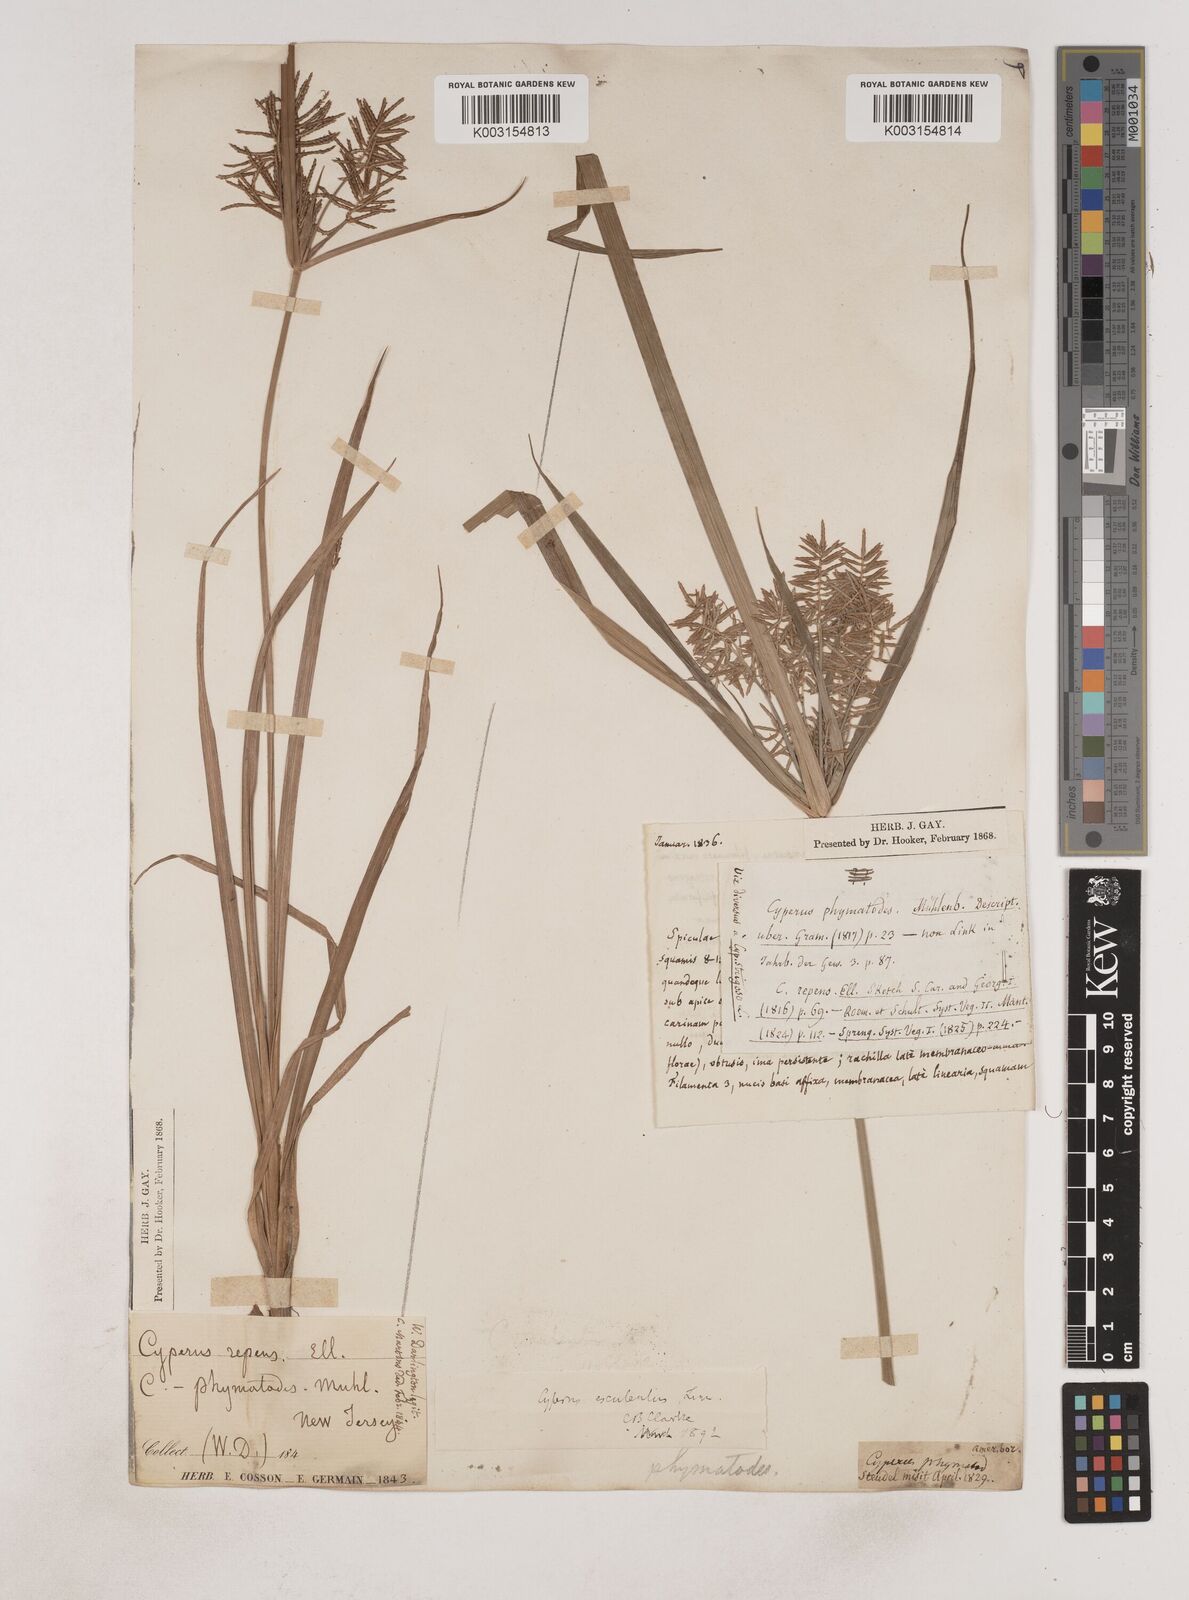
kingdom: Plantae
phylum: Tracheophyta
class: Liliopsida
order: Poales
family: Cyperaceae
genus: Cyperus
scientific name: Cyperus esculentus
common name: Yellow nutsedge
